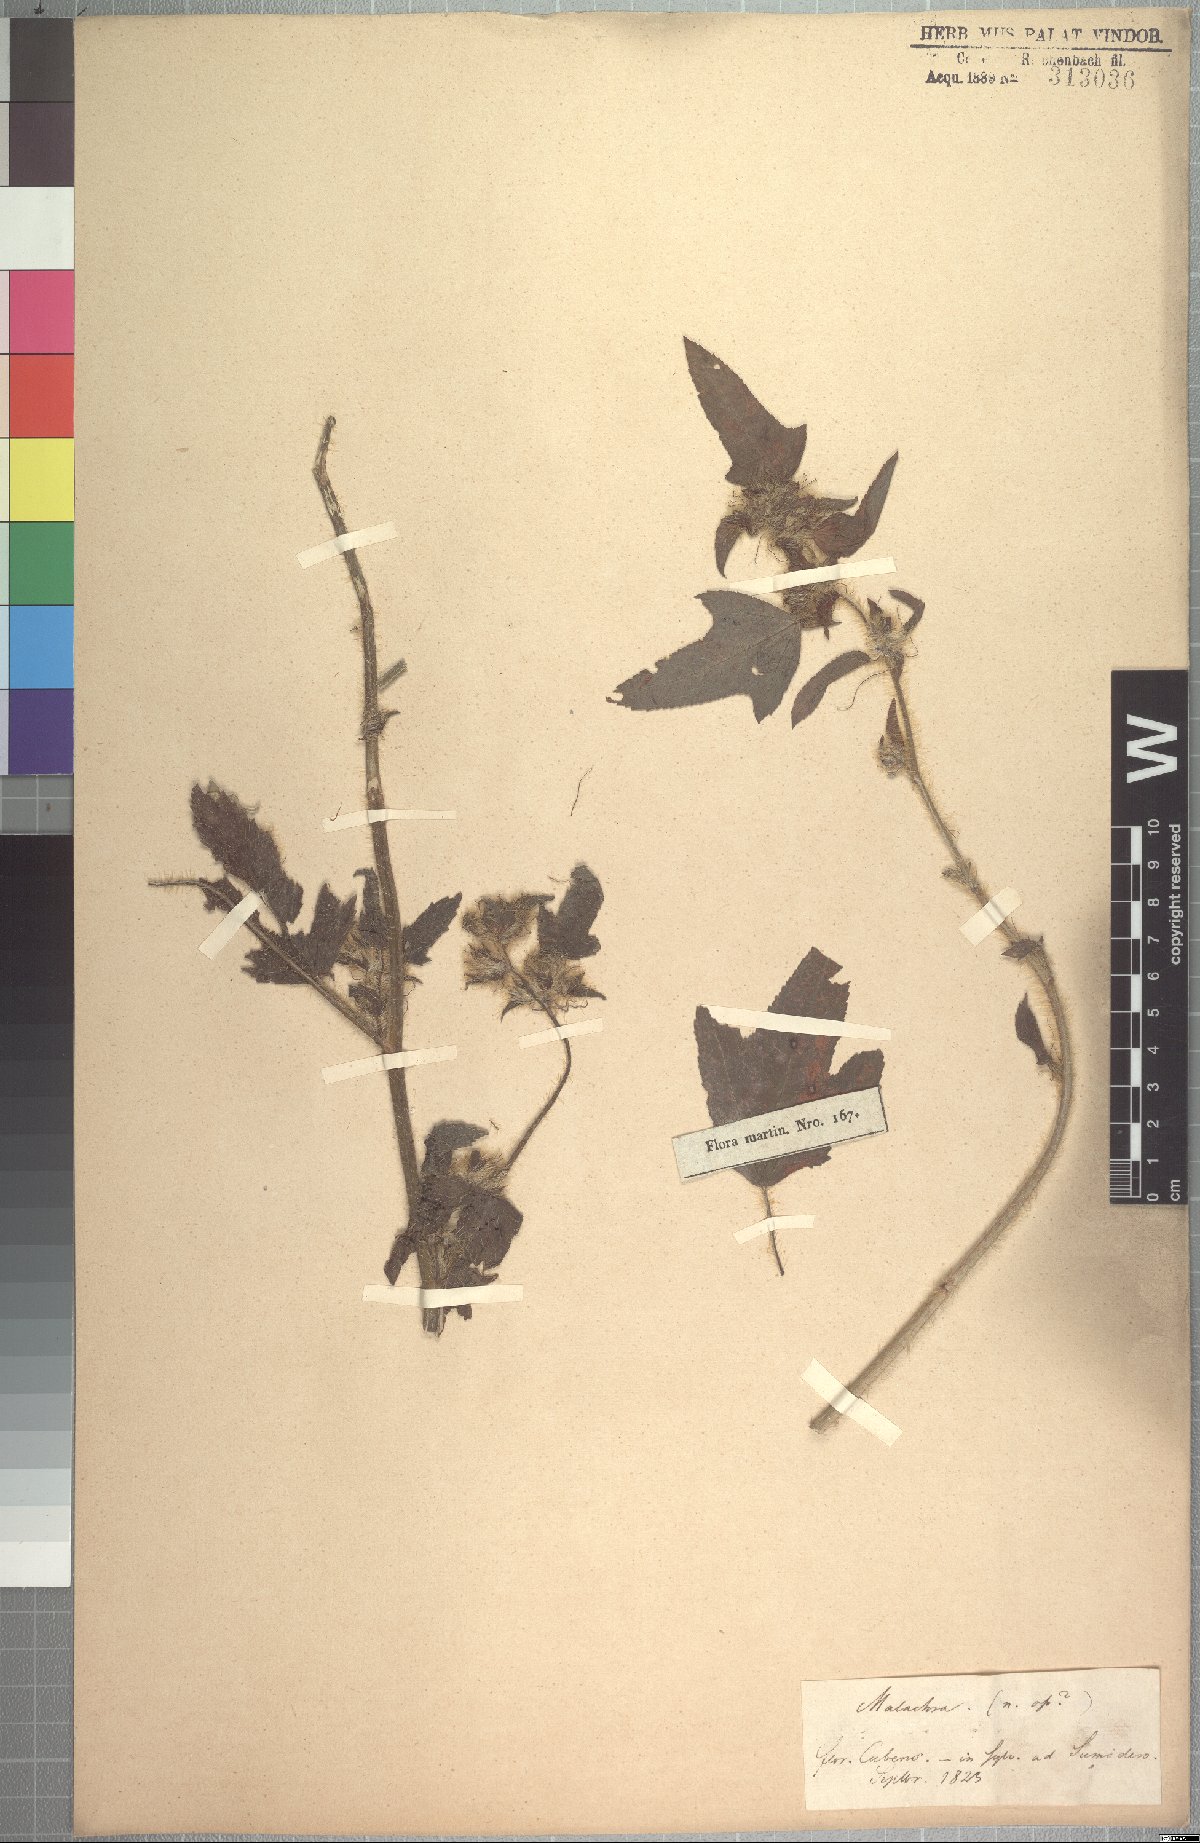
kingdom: Plantae
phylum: Tracheophyta
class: Magnoliopsida
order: Malvales
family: Malvaceae
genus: Malachra
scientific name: Malachra fasciata
